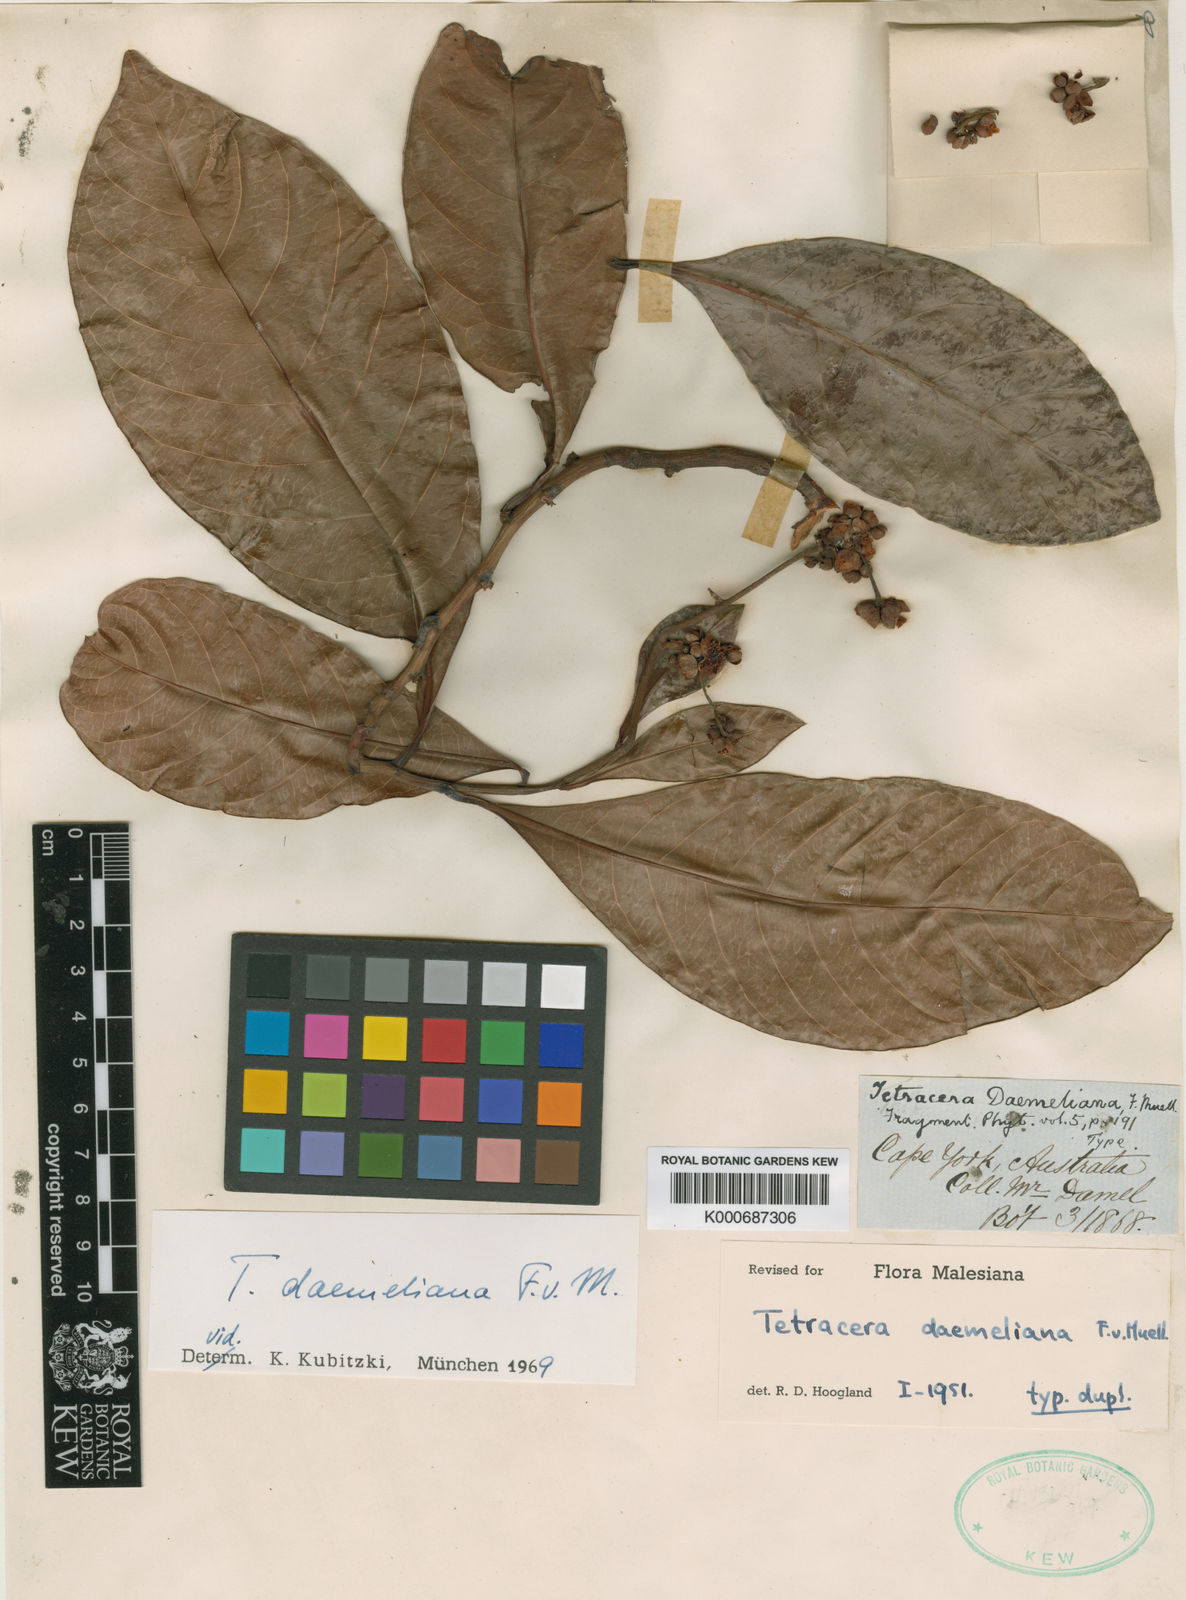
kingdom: Plantae
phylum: Tracheophyta
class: Magnoliopsida
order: Dilleniales
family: Dilleniaceae
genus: Tetracera
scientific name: Tetracera daemeliana
